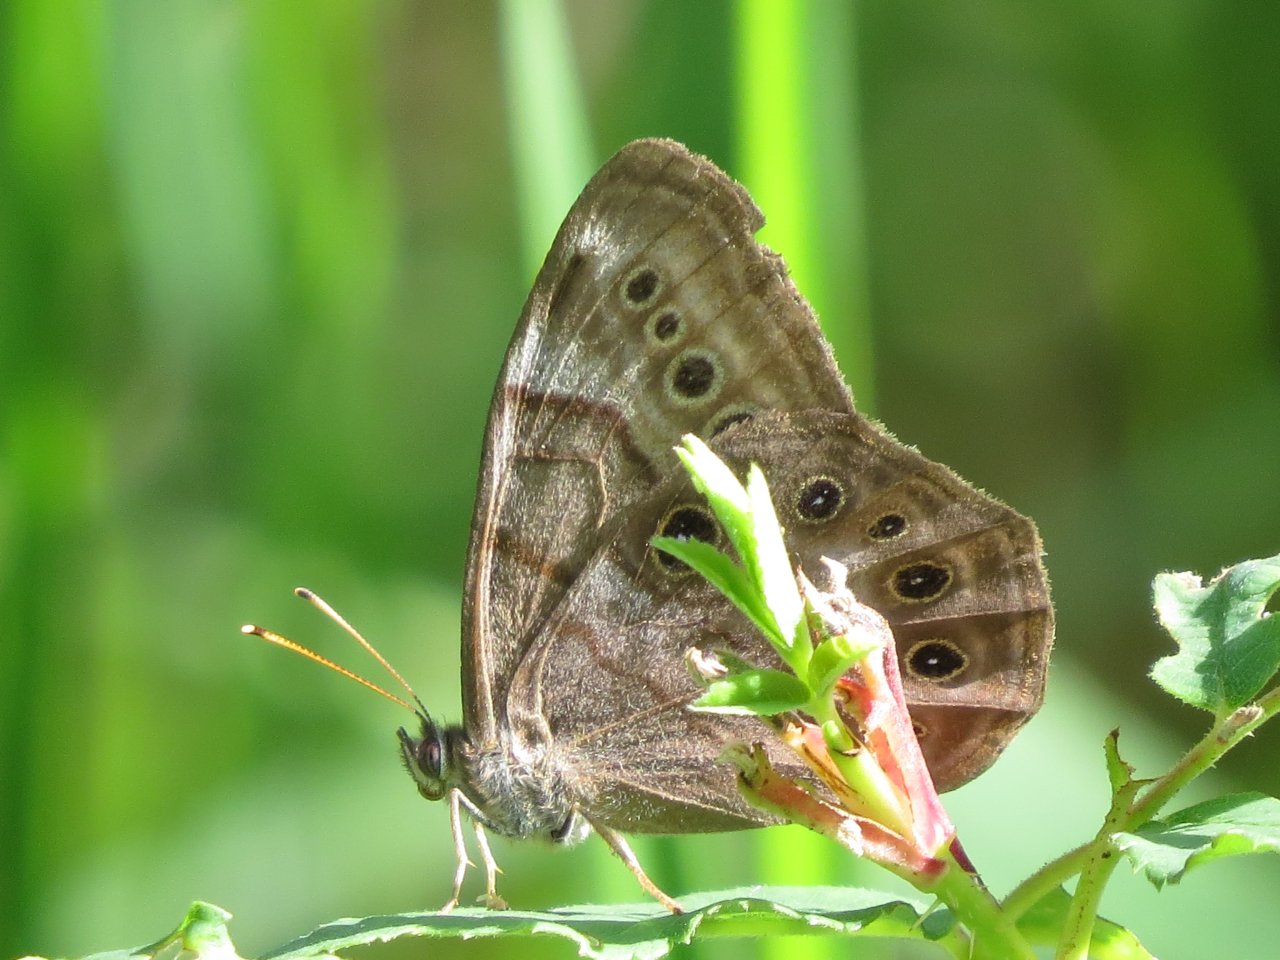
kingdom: Animalia
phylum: Arthropoda
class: Insecta
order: Lepidoptera
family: Nymphalidae
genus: Lethe
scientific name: Lethe anthedon
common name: Northern Pearly-Eye
